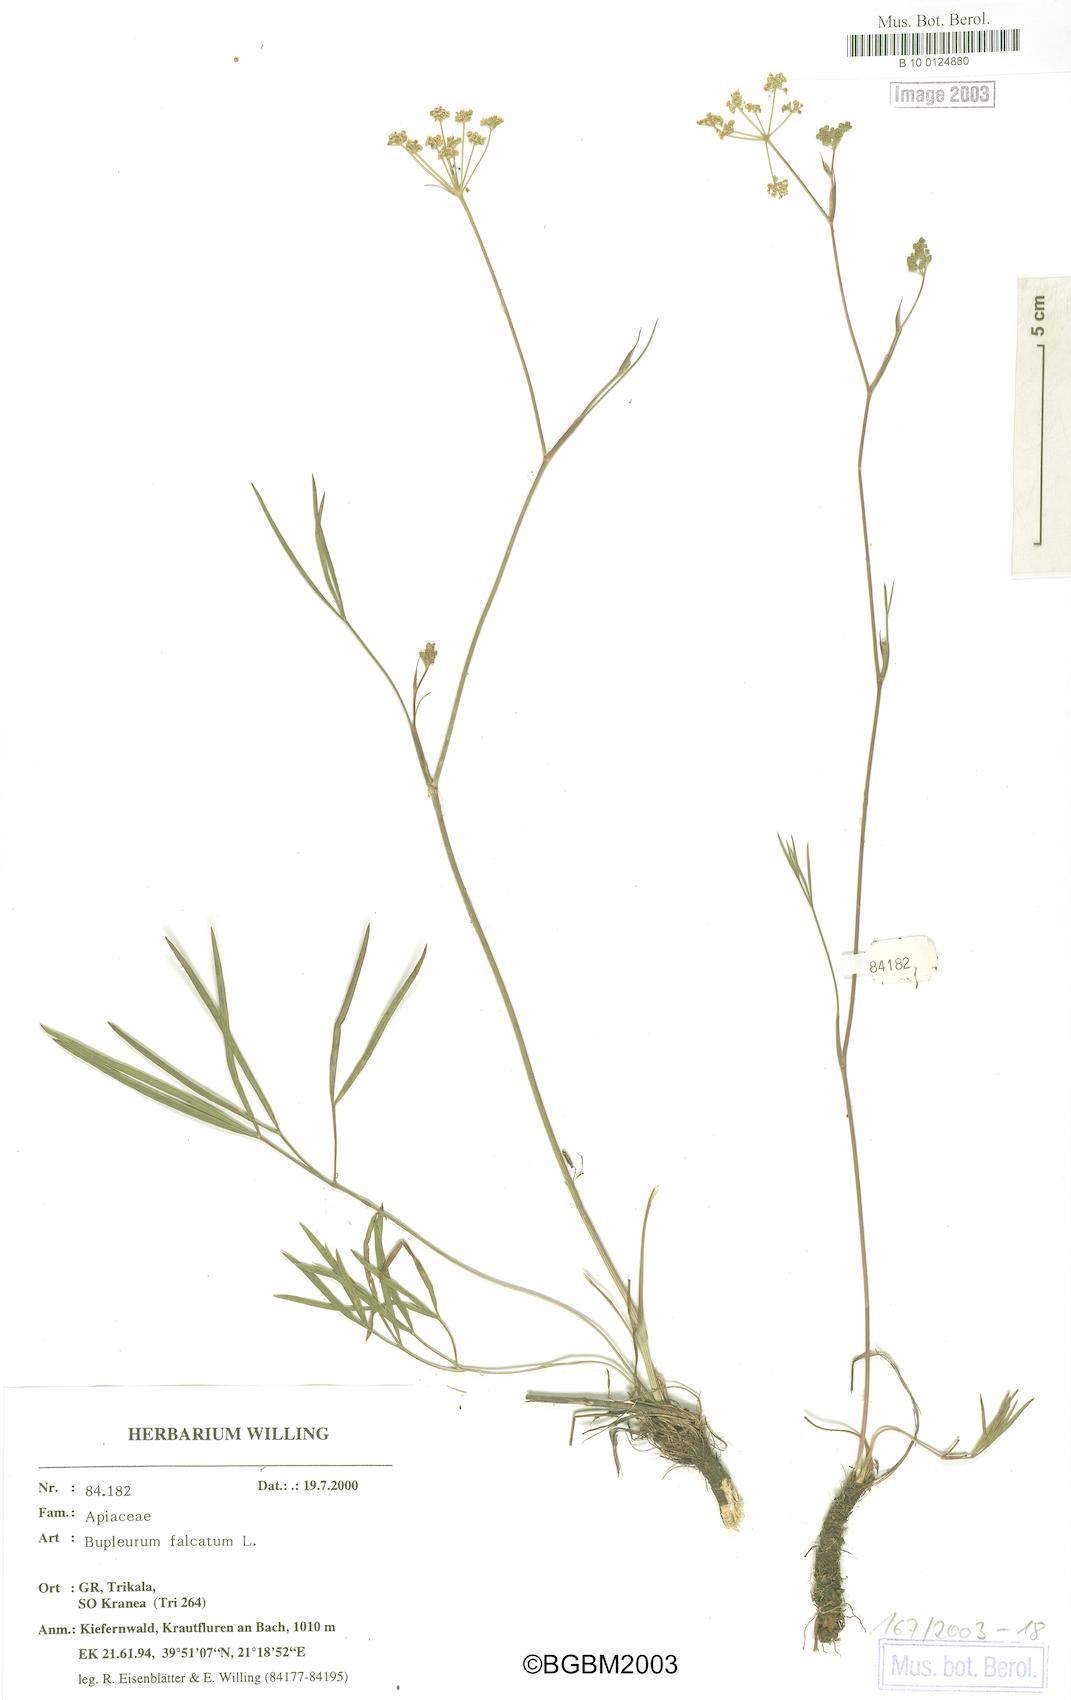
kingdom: Plantae
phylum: Tracheophyta
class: Magnoliopsida
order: Apiales
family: Apiaceae
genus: Bupleurum
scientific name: Bupleurum falcatum
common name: Sickle-leaved hare's-ear
